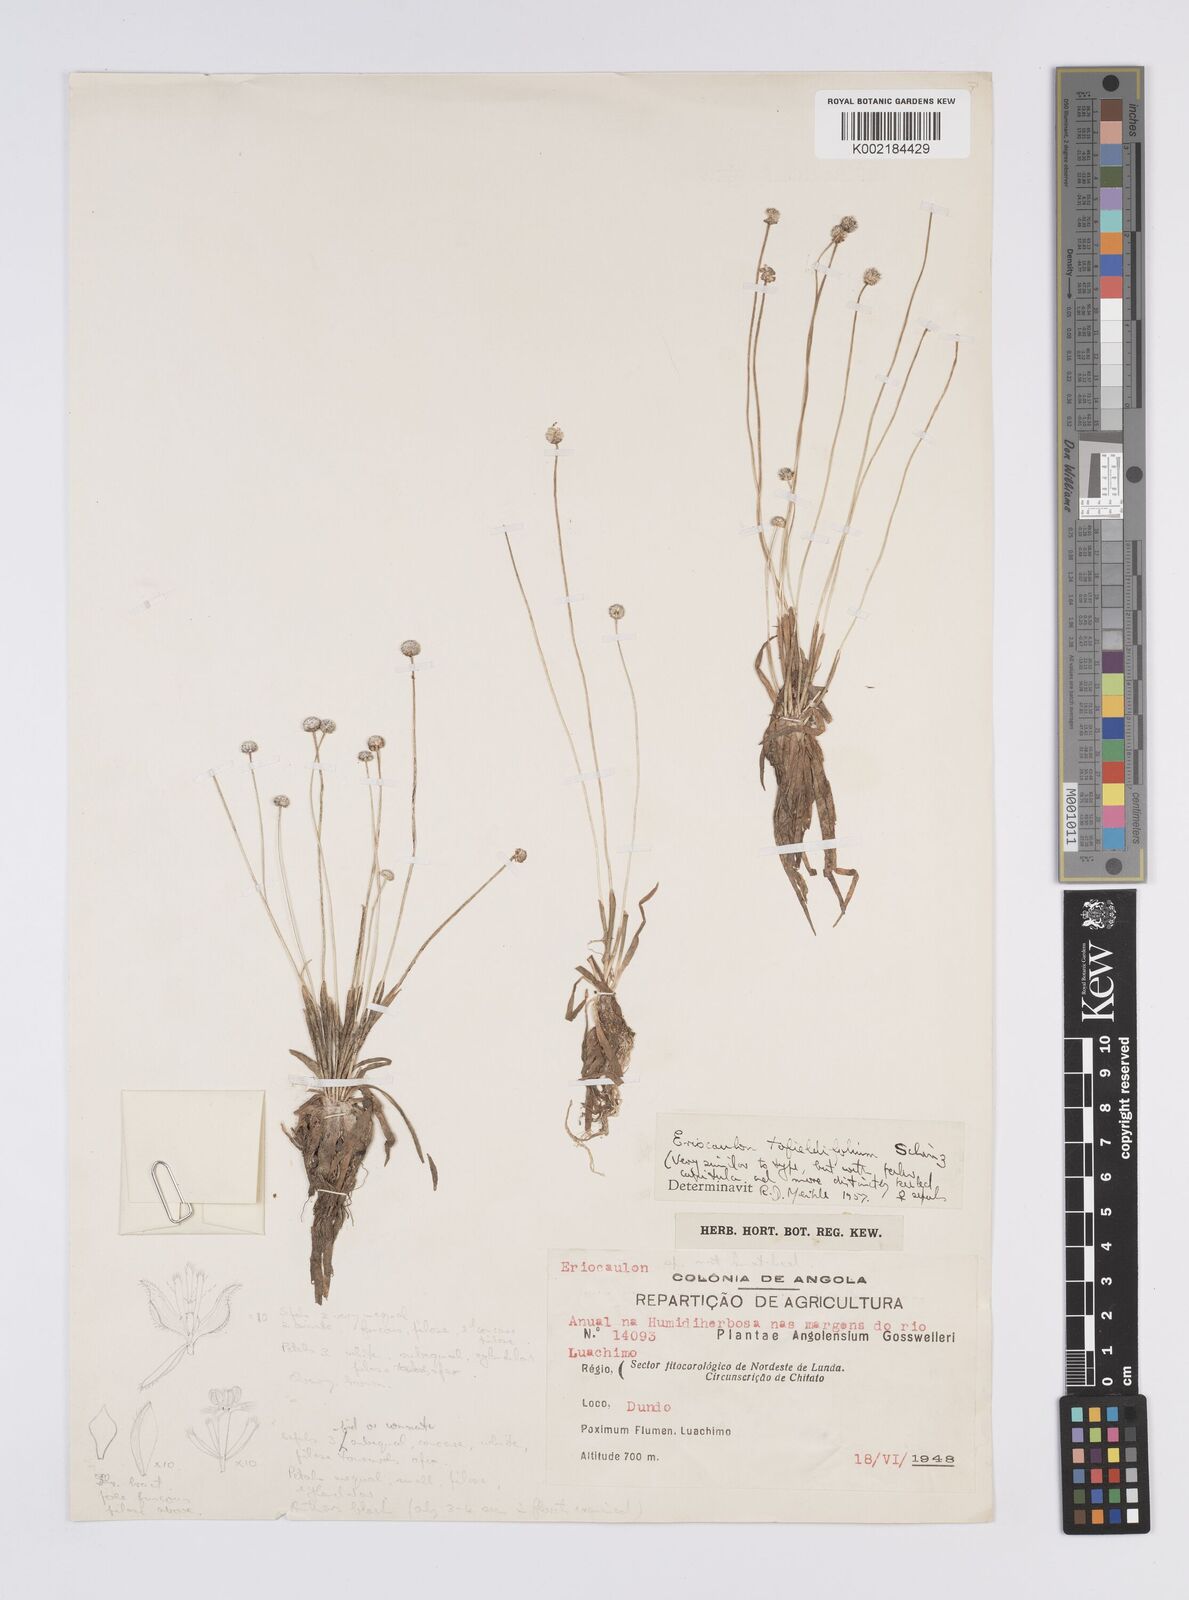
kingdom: Plantae
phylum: Tracheophyta
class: Liliopsida
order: Poales
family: Eriocaulaceae
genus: Eriocaulon
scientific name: Eriocaulon
